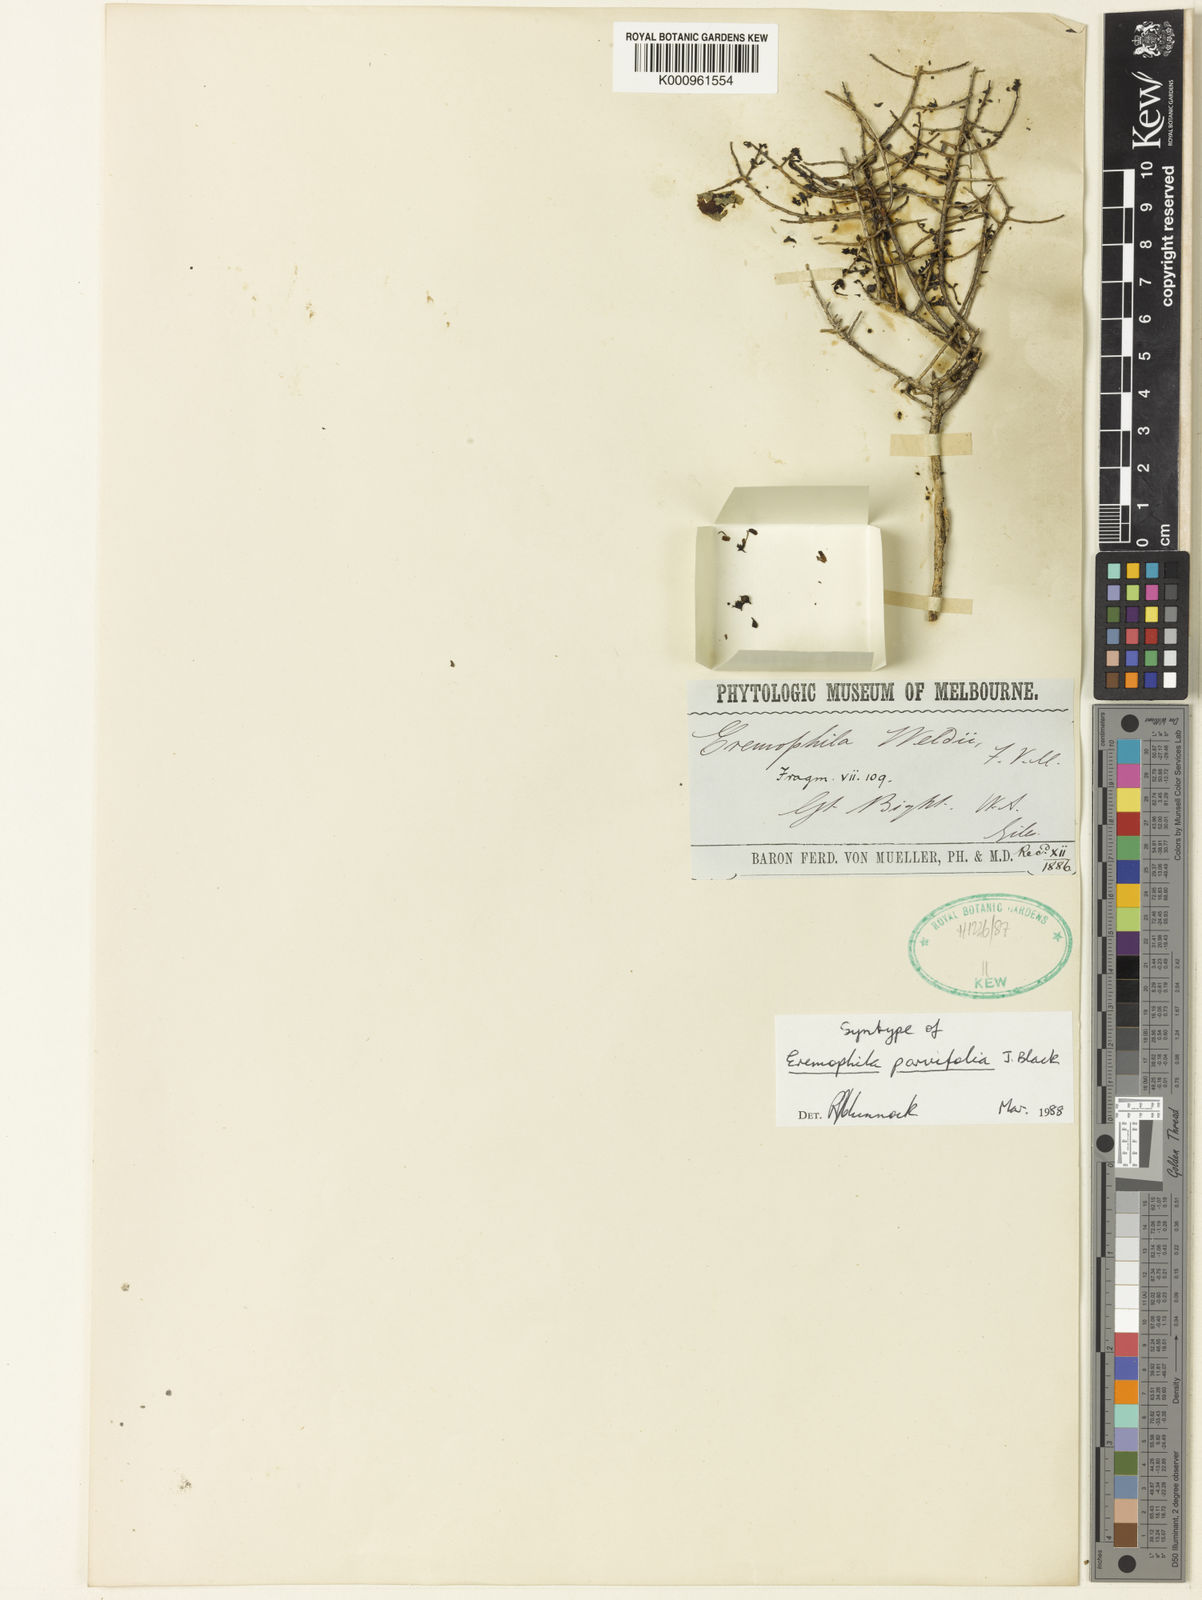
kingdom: Plantae
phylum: Tracheophyta
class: Magnoliopsida
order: Lamiales
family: Scrophulariaceae
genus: Eremophila
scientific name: Eremophila parvifolia
